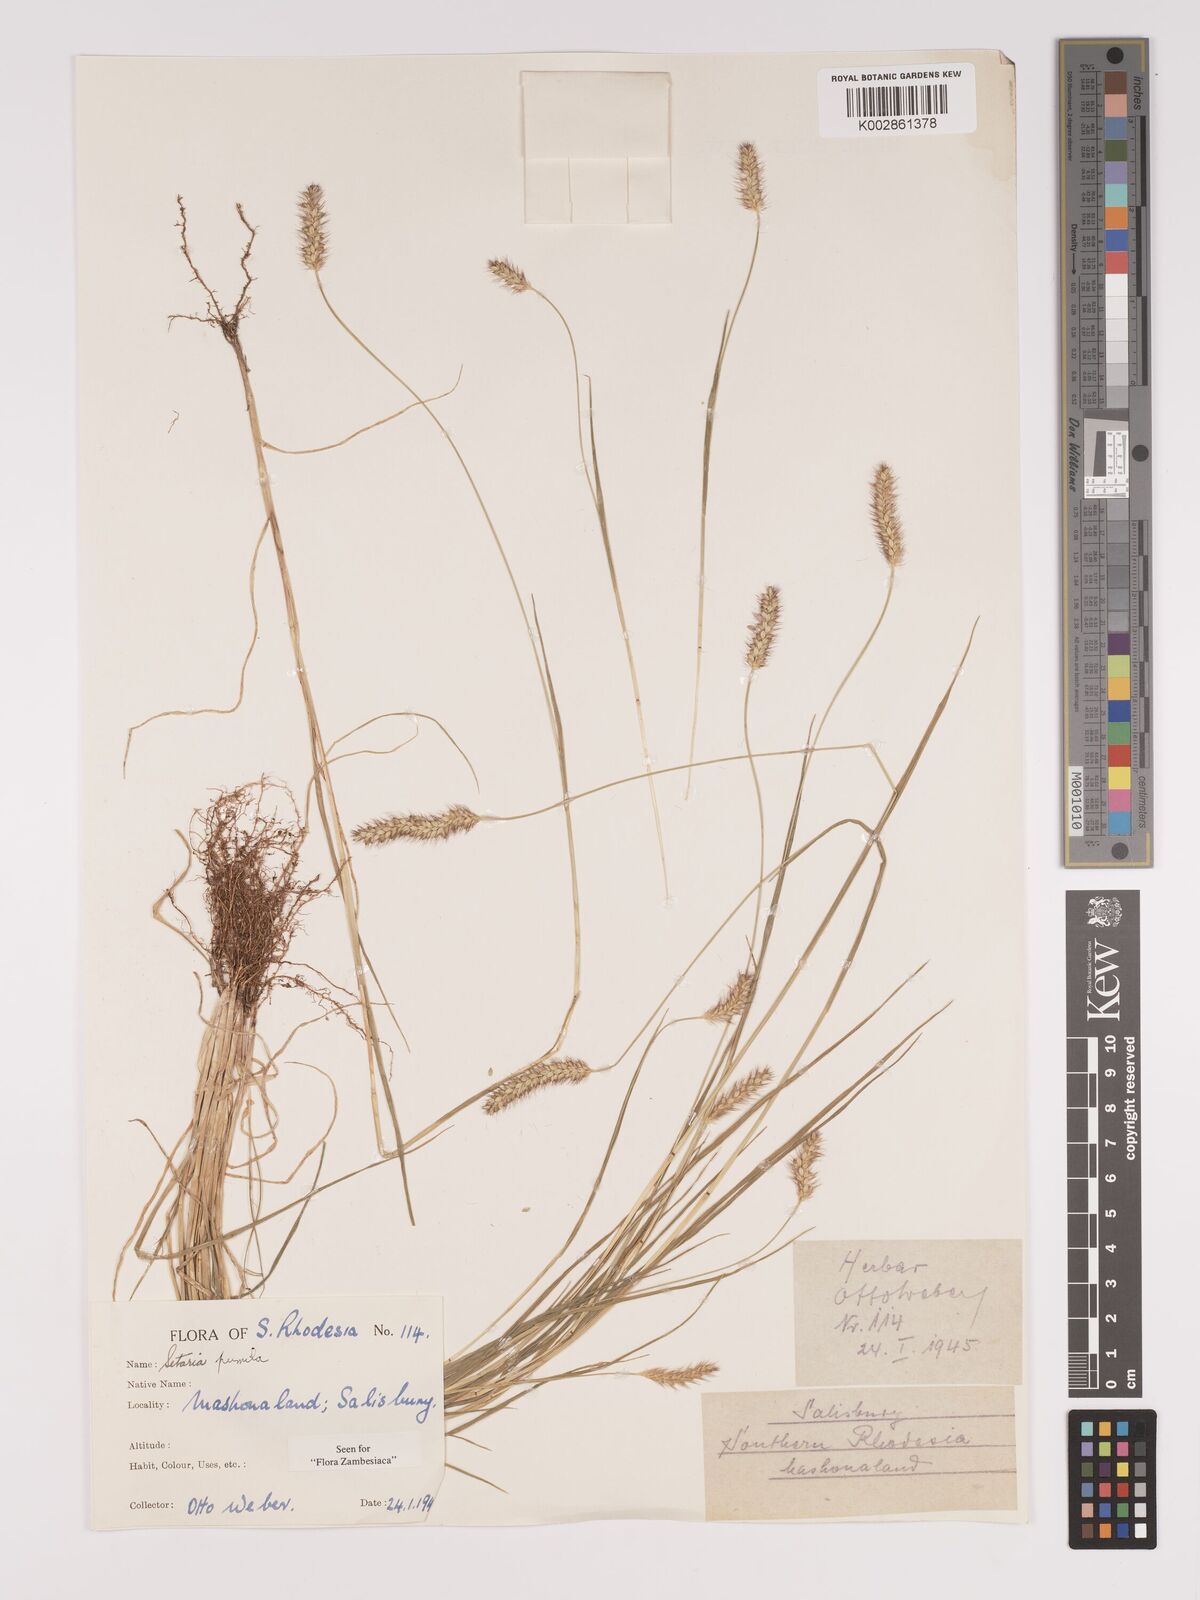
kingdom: Plantae
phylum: Tracheophyta
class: Liliopsida
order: Poales
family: Poaceae
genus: Setaria
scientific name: Setaria pumila
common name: Yellow bristle-grass
